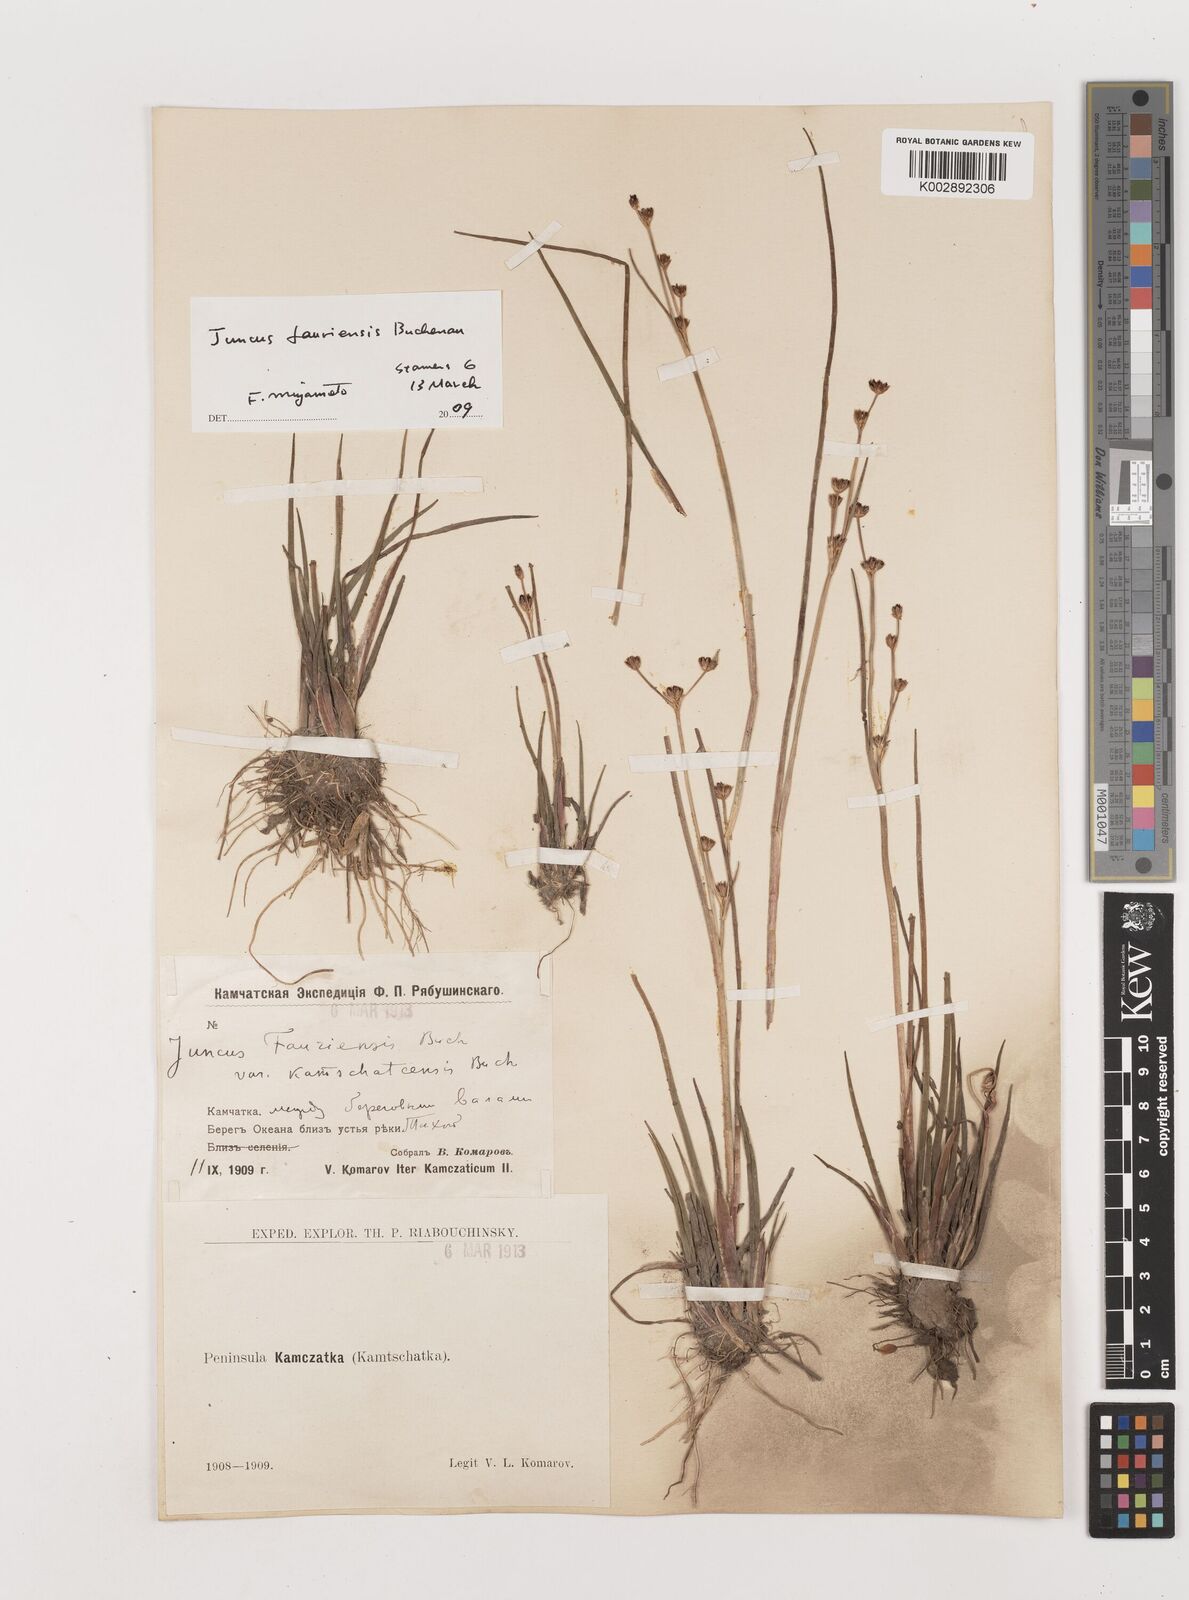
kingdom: Plantae
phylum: Tracheophyta
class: Liliopsida
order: Poales
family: Juncaceae
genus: Juncus
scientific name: Juncus fauriensis
